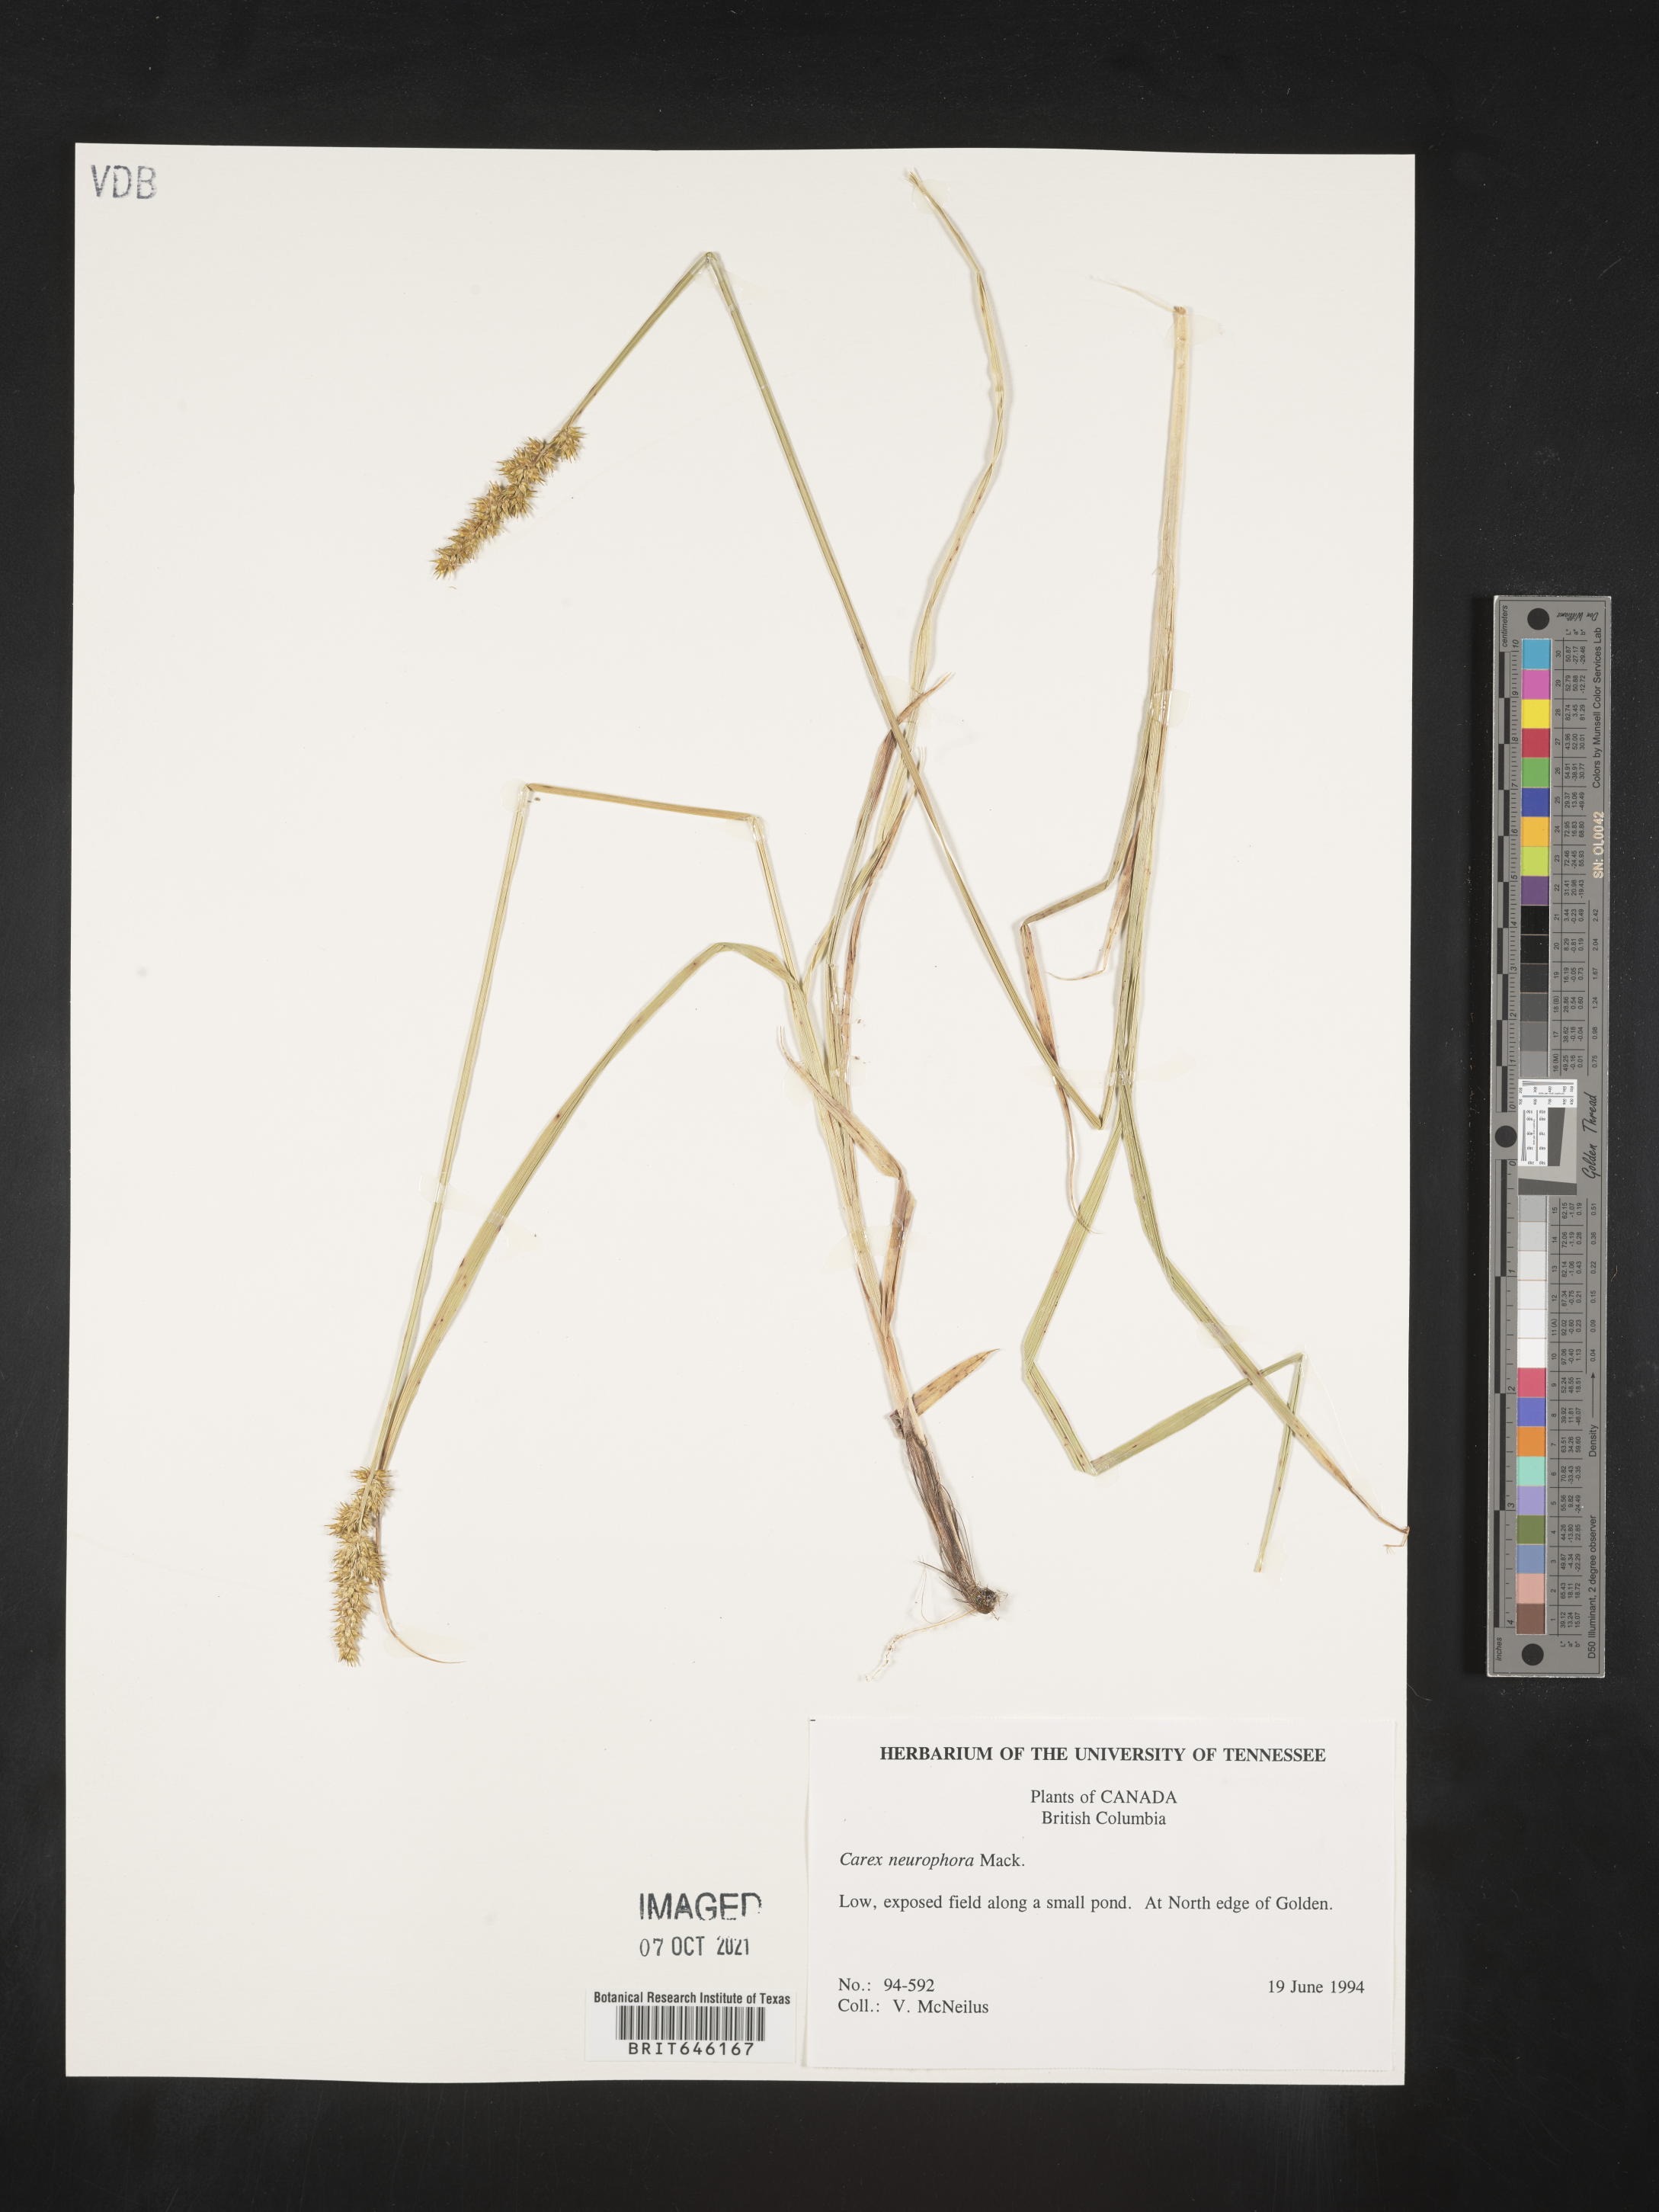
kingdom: Plantae
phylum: Tracheophyta
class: Liliopsida
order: Poales
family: Cyperaceae
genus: Carex
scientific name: Carex neurophora
